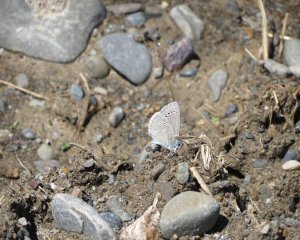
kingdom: Animalia
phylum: Arthropoda
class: Insecta
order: Lepidoptera
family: Lycaenidae
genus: Glaucopsyche
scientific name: Glaucopsyche lygdamus
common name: Silvery Blue
